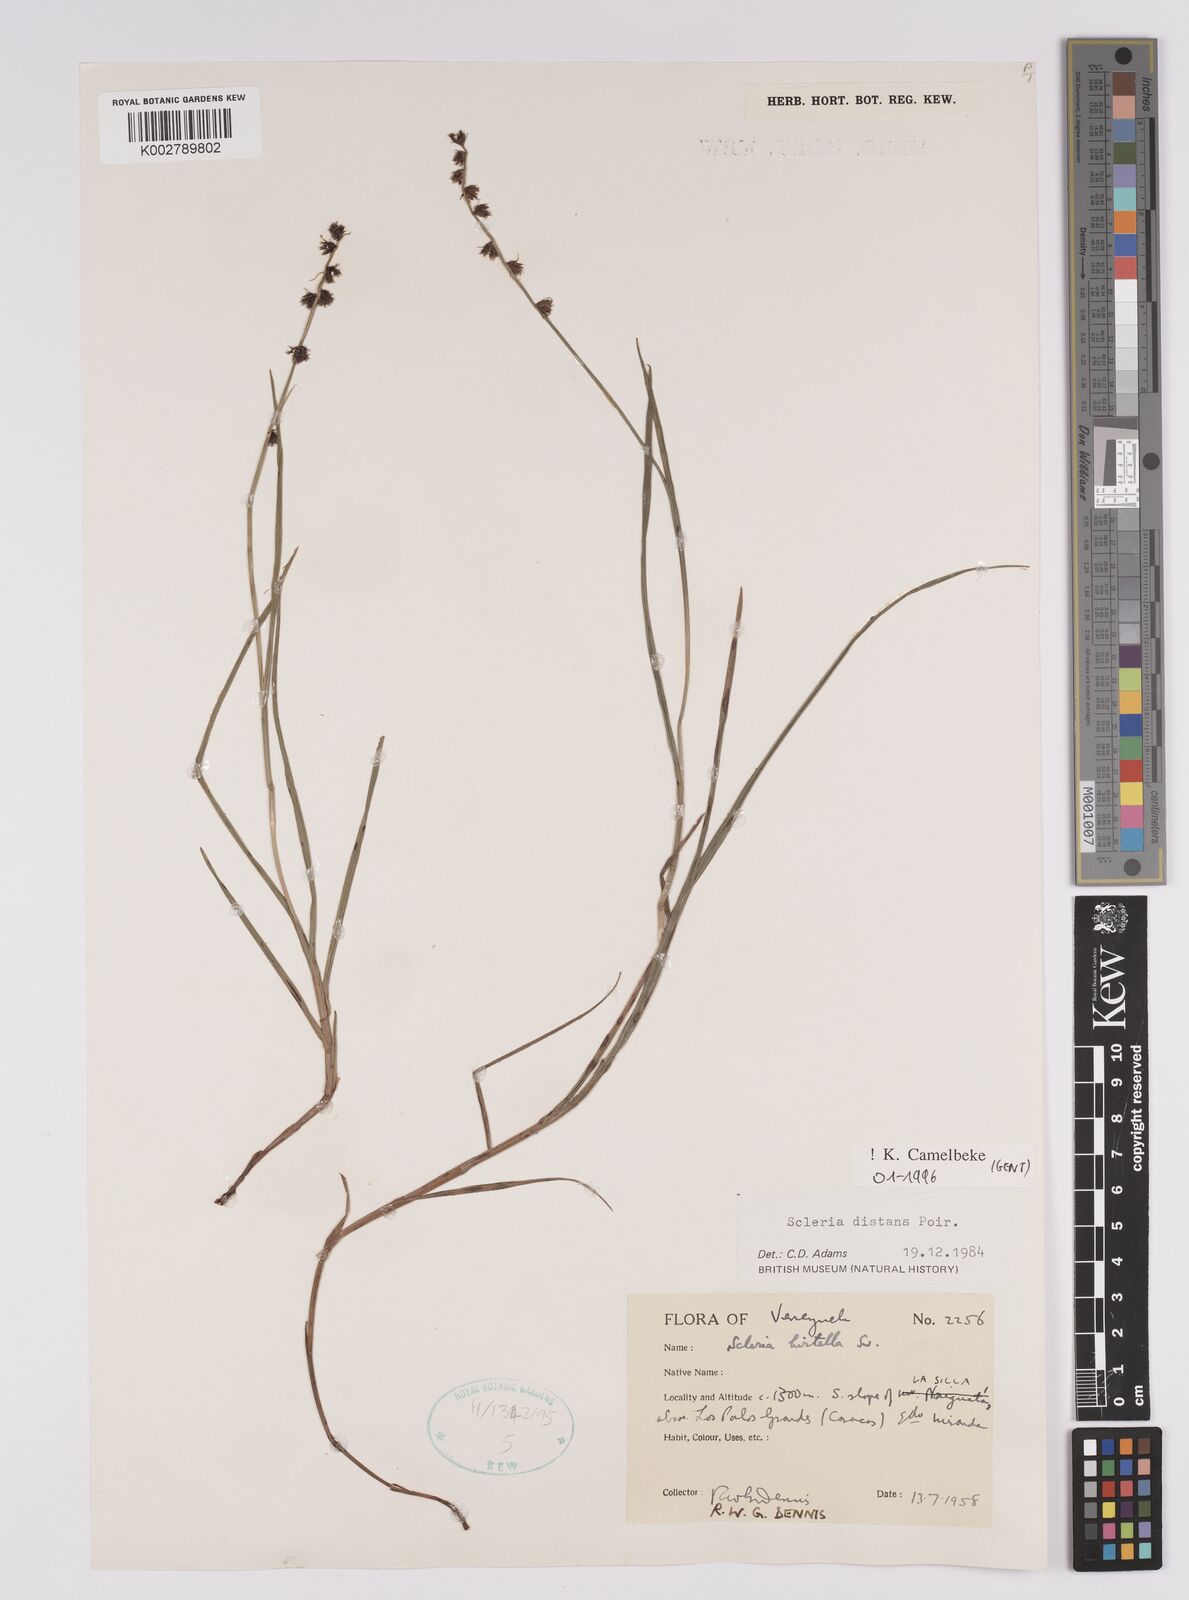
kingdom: Plantae
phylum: Tracheophyta
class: Liliopsida
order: Poales
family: Cyperaceae
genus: Scleria
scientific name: Scleria verticillata
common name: Low nutrush
